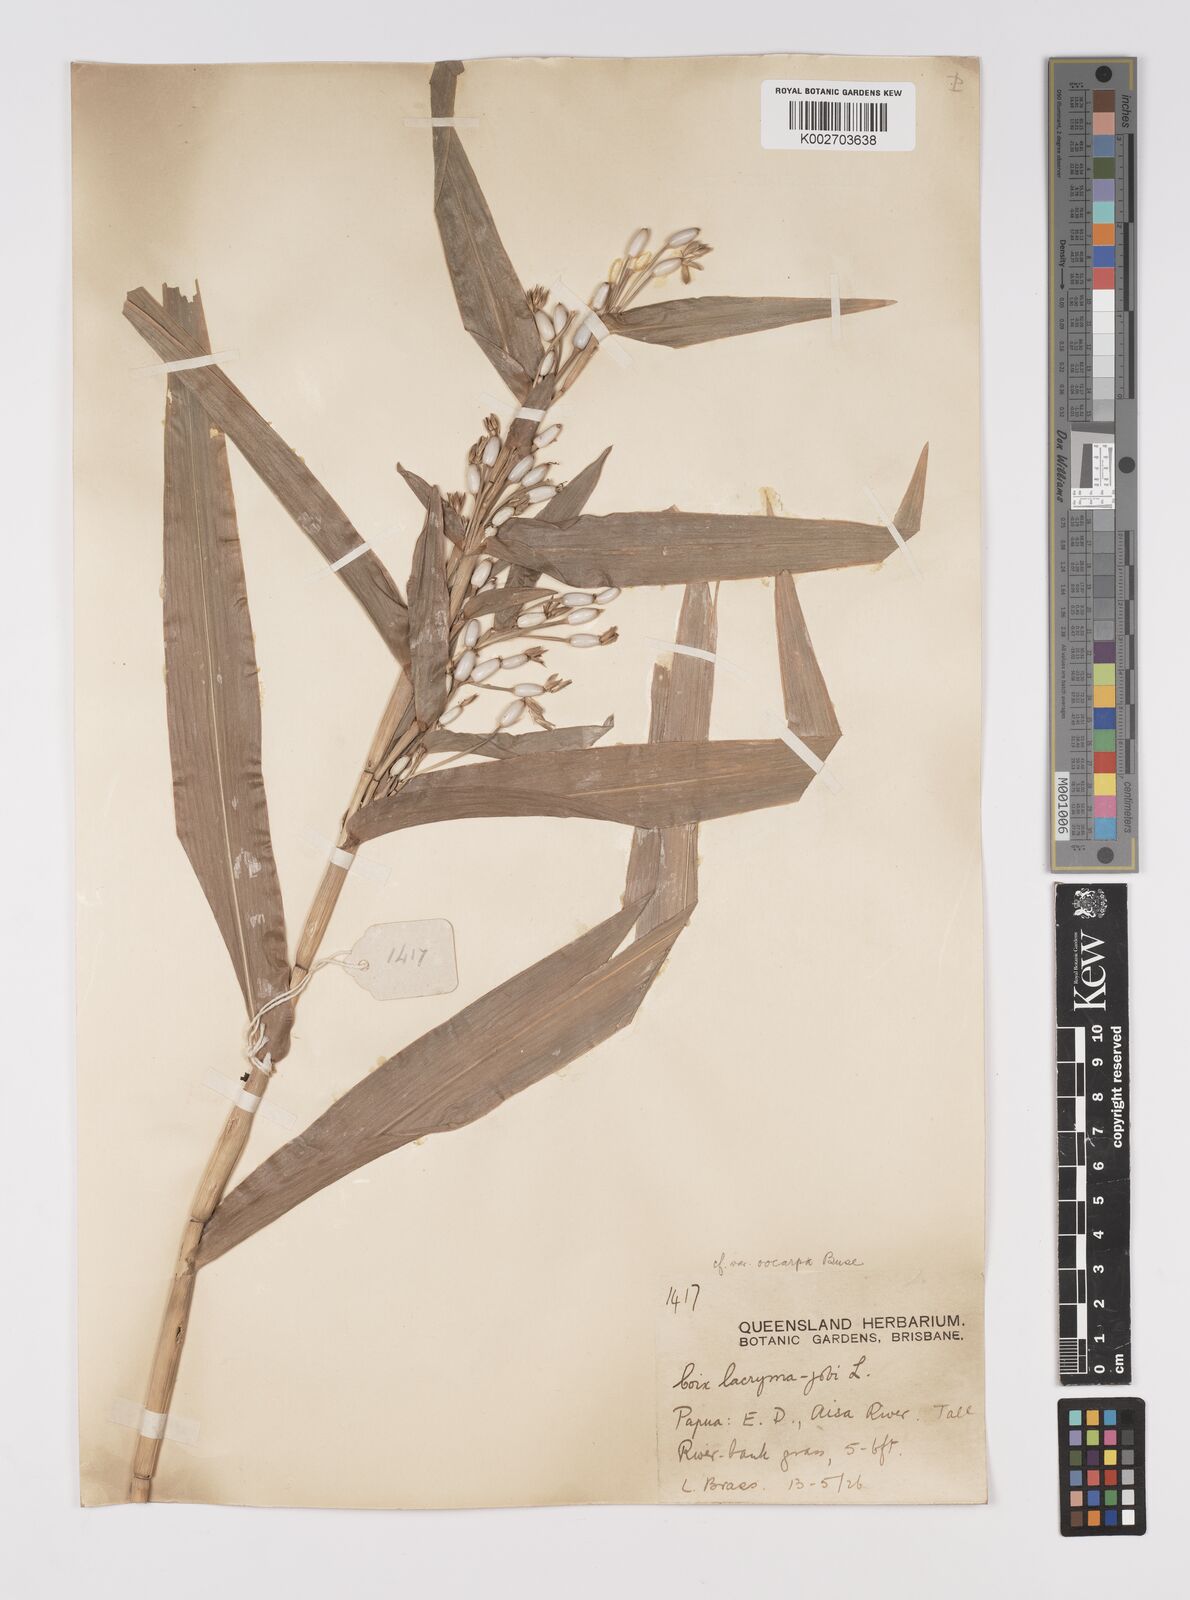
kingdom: Plantae
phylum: Tracheophyta
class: Liliopsida
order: Poales
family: Poaceae
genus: Coix
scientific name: Coix lacryma-jobi
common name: Job's tears
